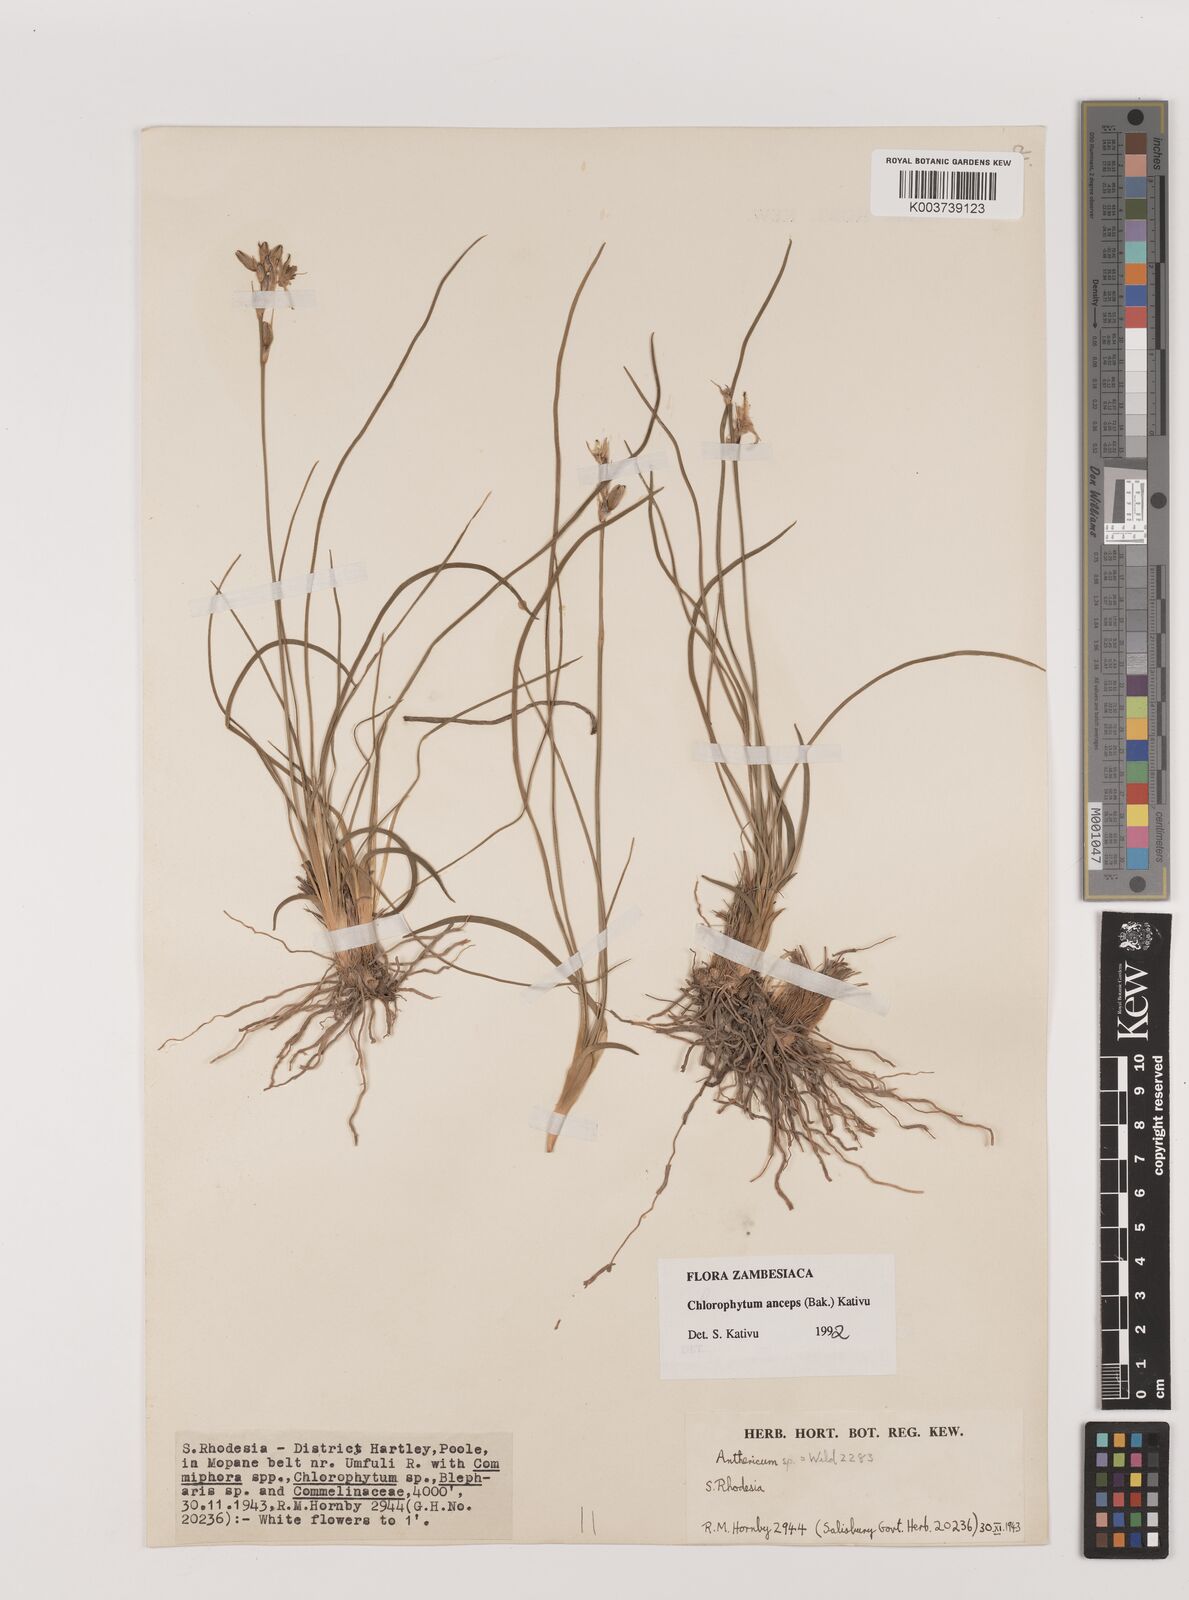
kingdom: Plantae
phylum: Tracheophyta
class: Liliopsida
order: Asparagales
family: Asparagaceae
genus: Chlorophytum
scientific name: Chlorophytum anceps
